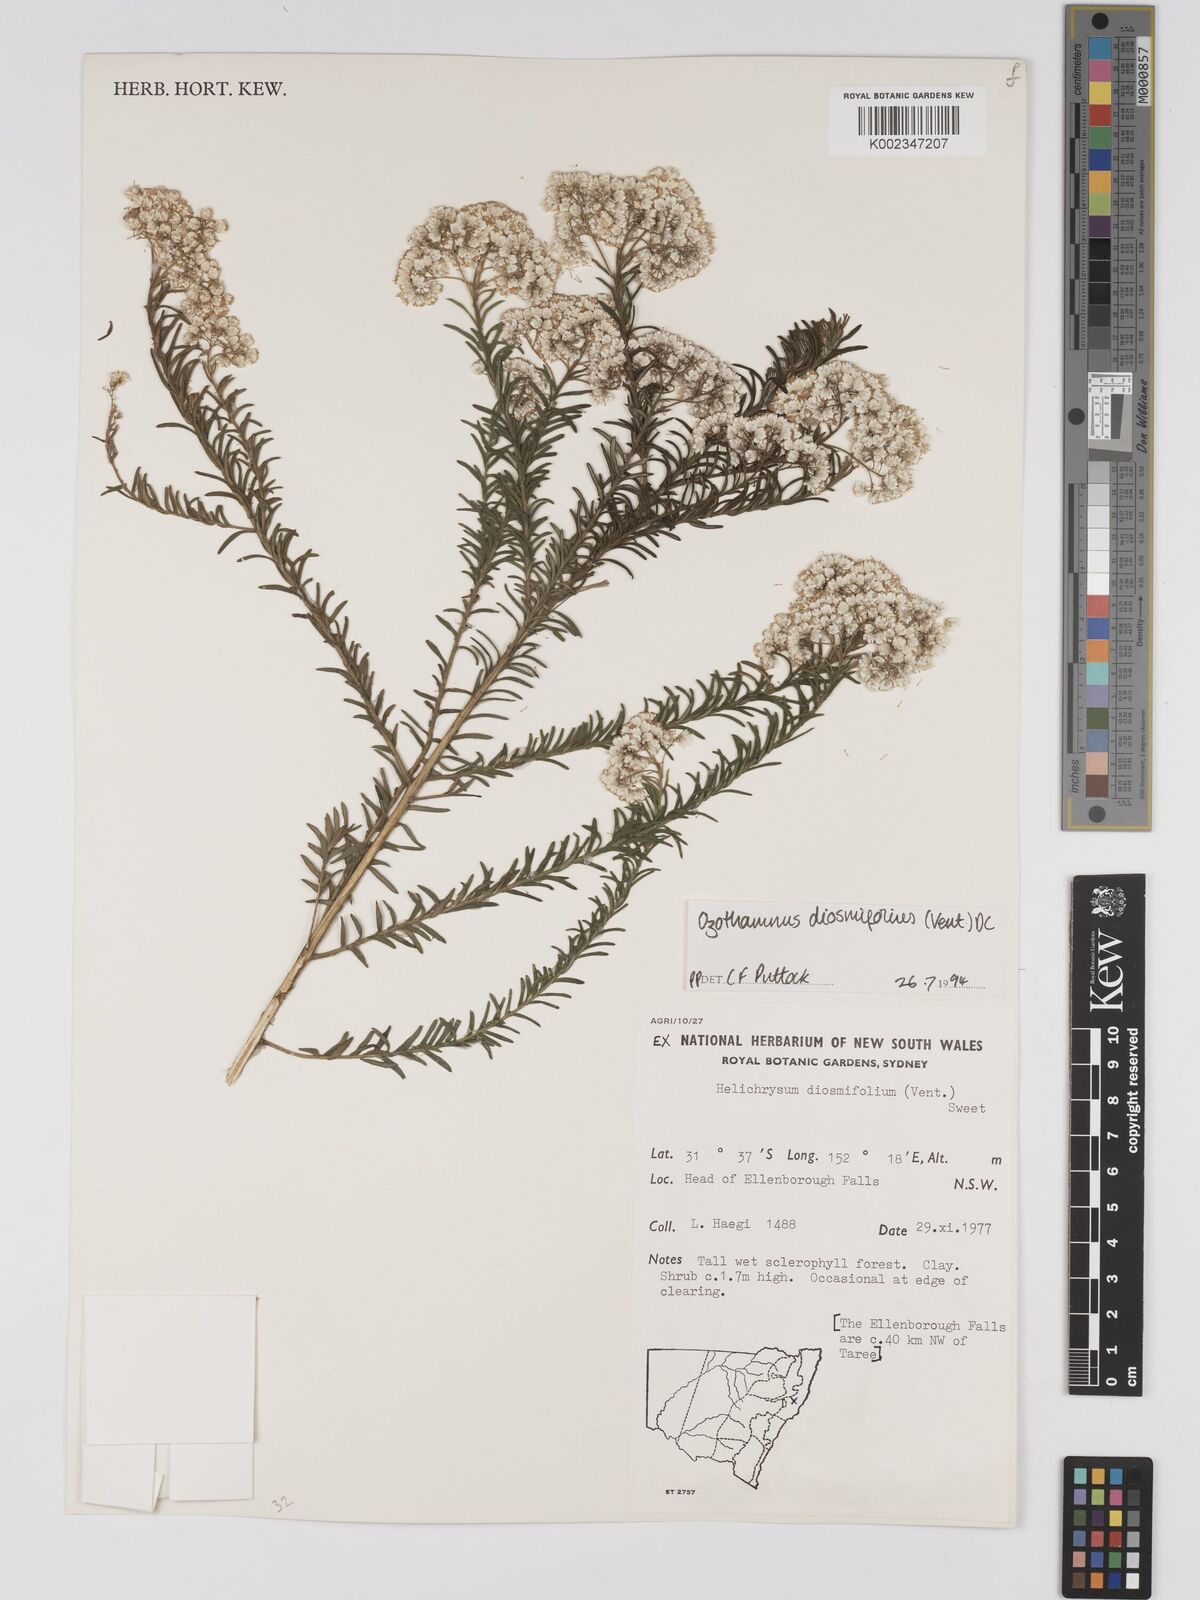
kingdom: Plantae
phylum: Tracheophyta
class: Magnoliopsida
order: Asterales
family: Asteraceae
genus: Ozothamnus
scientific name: Ozothamnus diosmifolius
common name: White-dogwood
